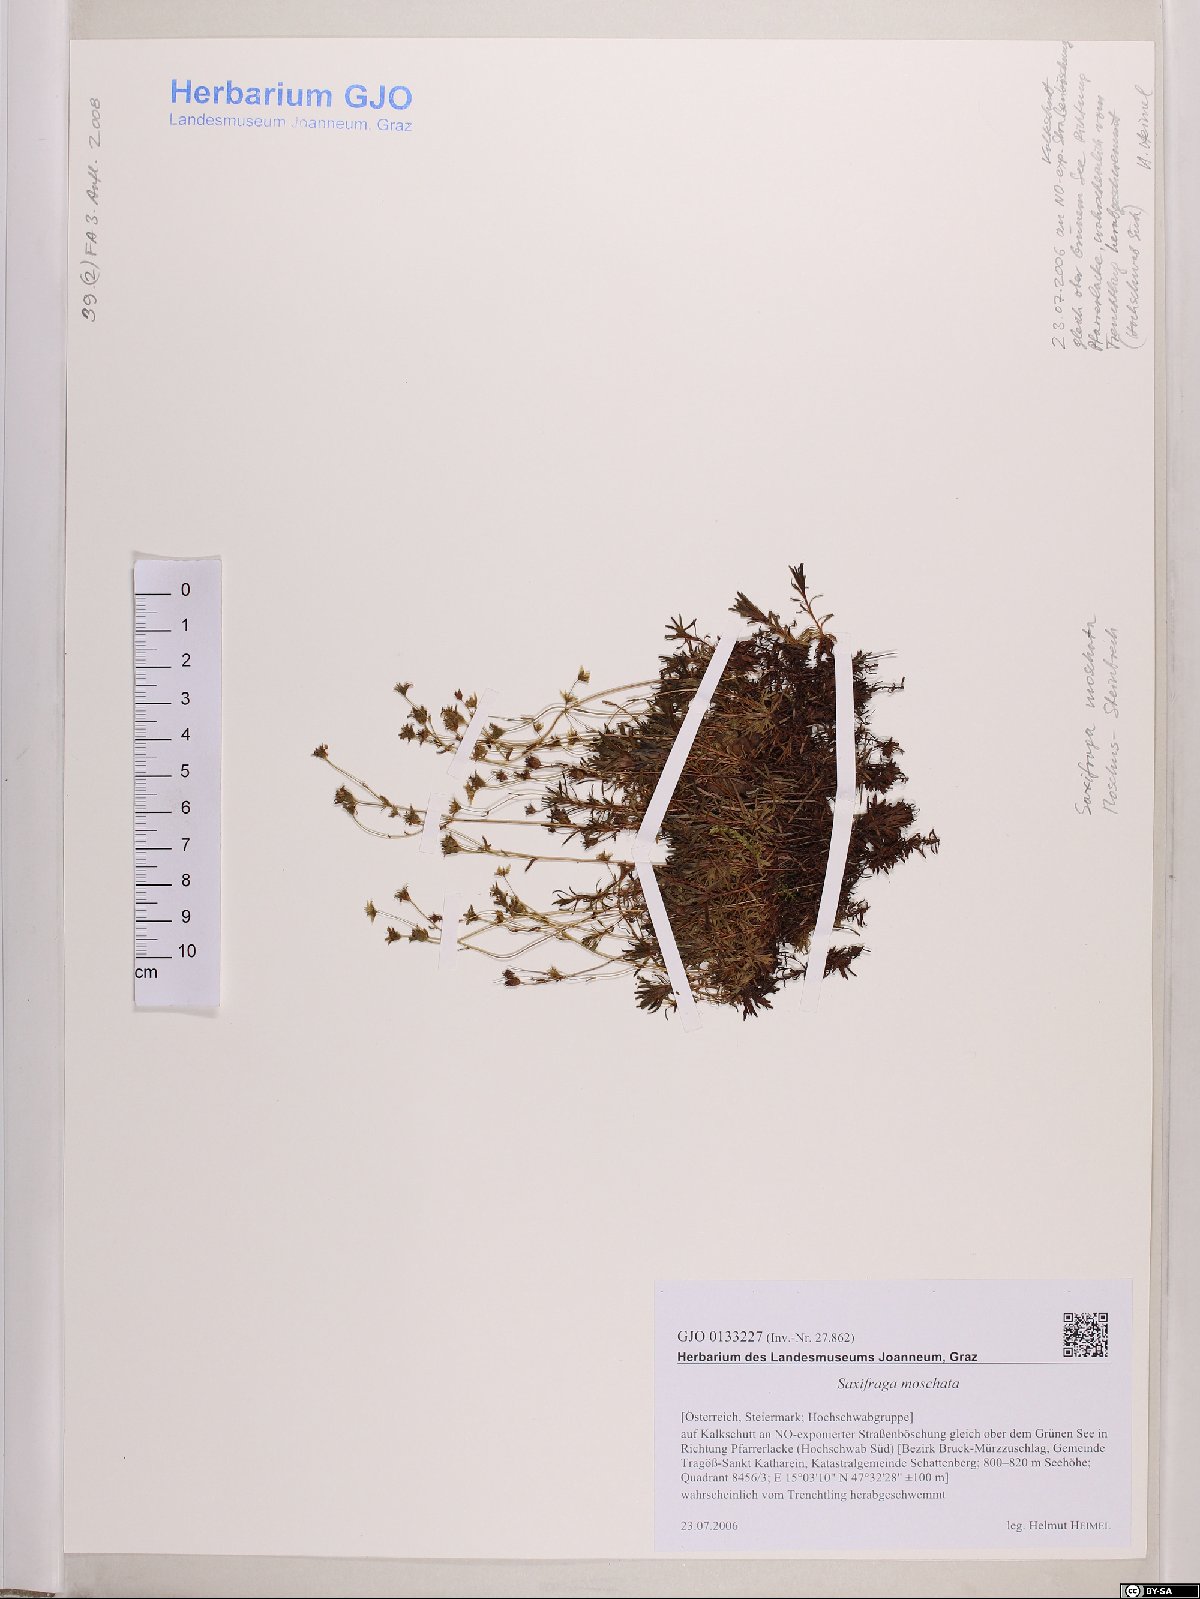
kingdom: Plantae
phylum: Tracheophyta
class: Magnoliopsida
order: Saxifragales
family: Saxifragaceae
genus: Saxifraga
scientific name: Saxifraga moschata
